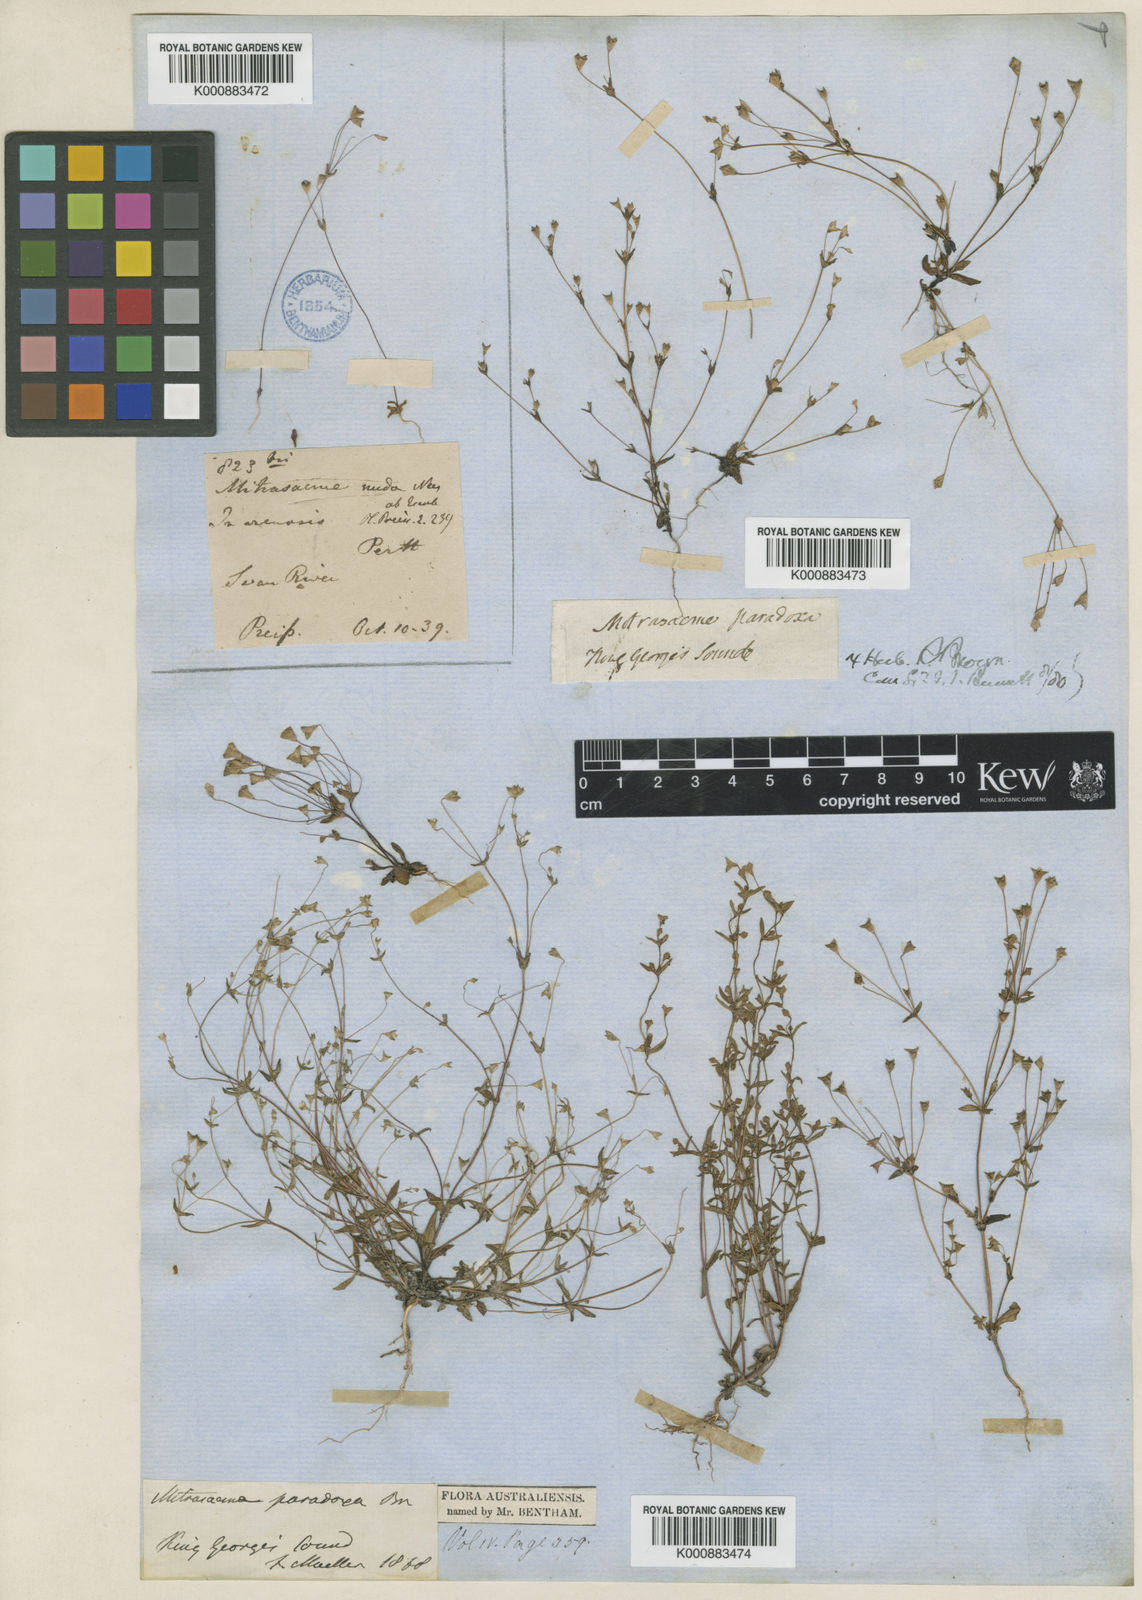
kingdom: Plantae
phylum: Tracheophyta
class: Magnoliopsida
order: Gentianales
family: Loganiaceae
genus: Phyllangium
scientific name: Phyllangium paradoxum
